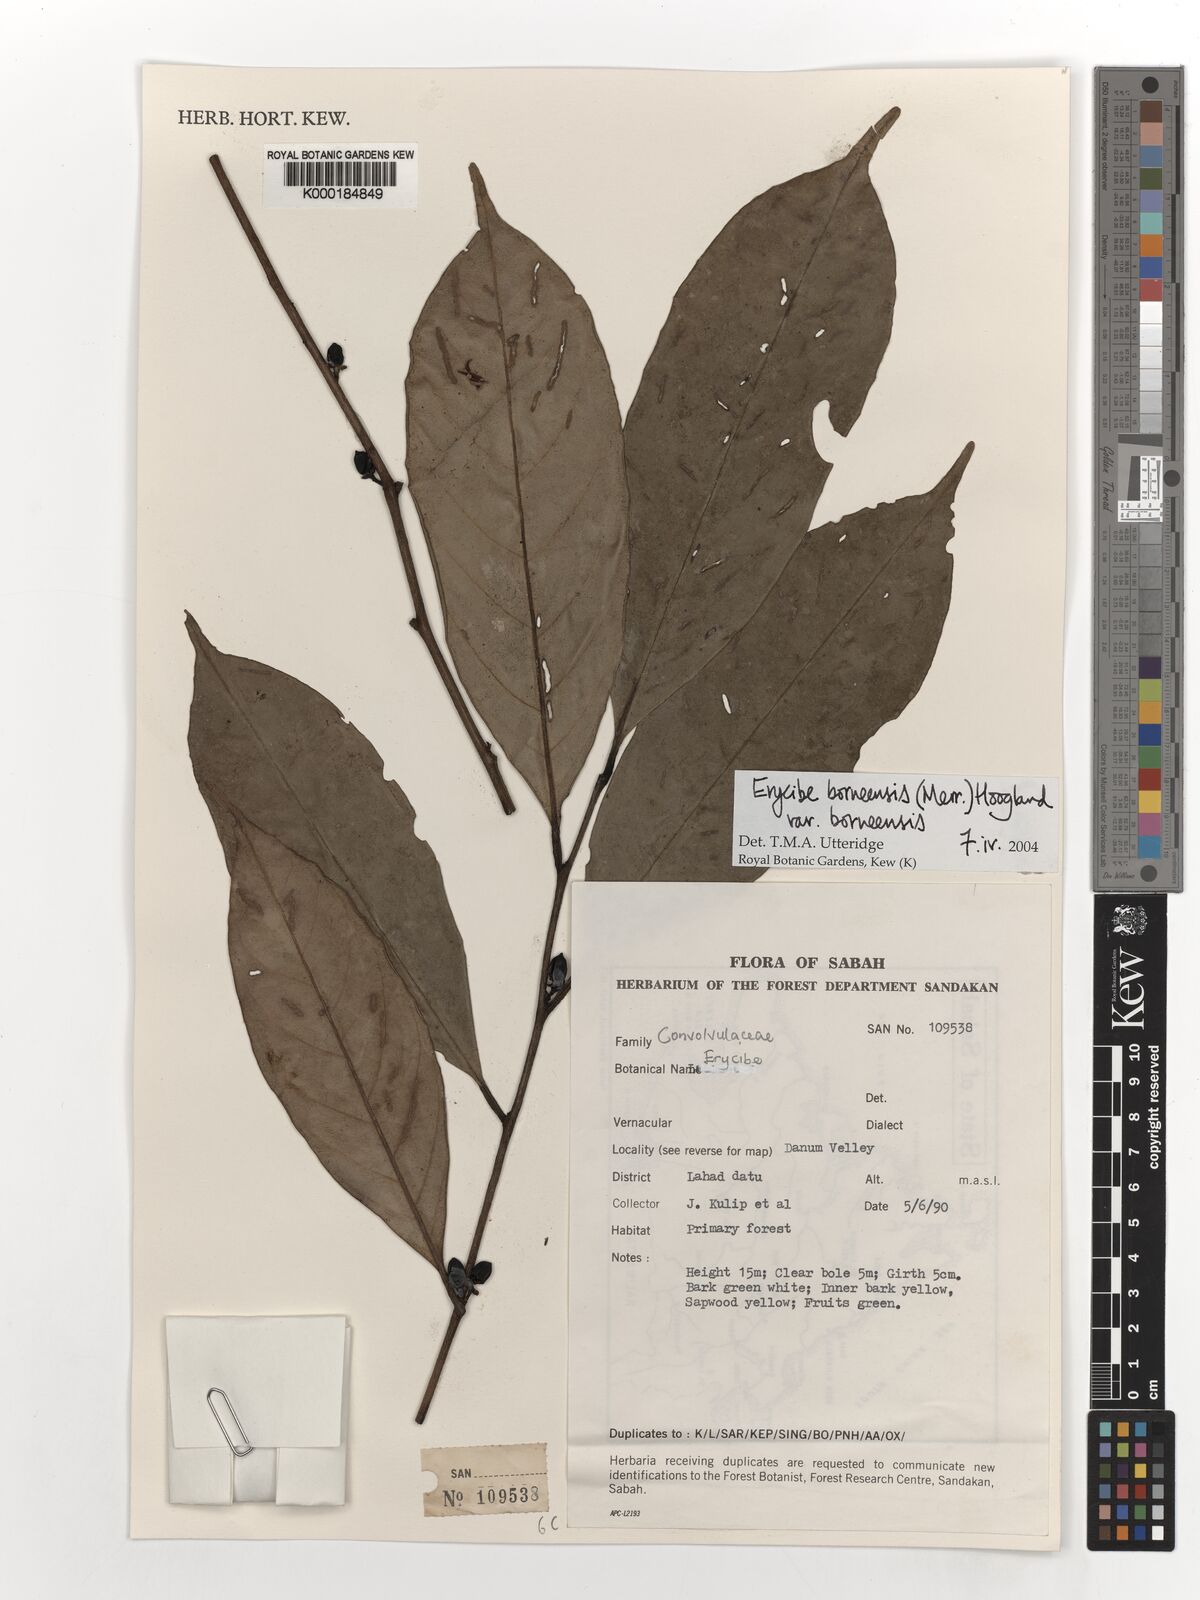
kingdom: Plantae
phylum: Tracheophyta
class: Magnoliopsida
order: Solanales
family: Convolvulaceae
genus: Erycibe
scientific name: Erycibe borneensis
